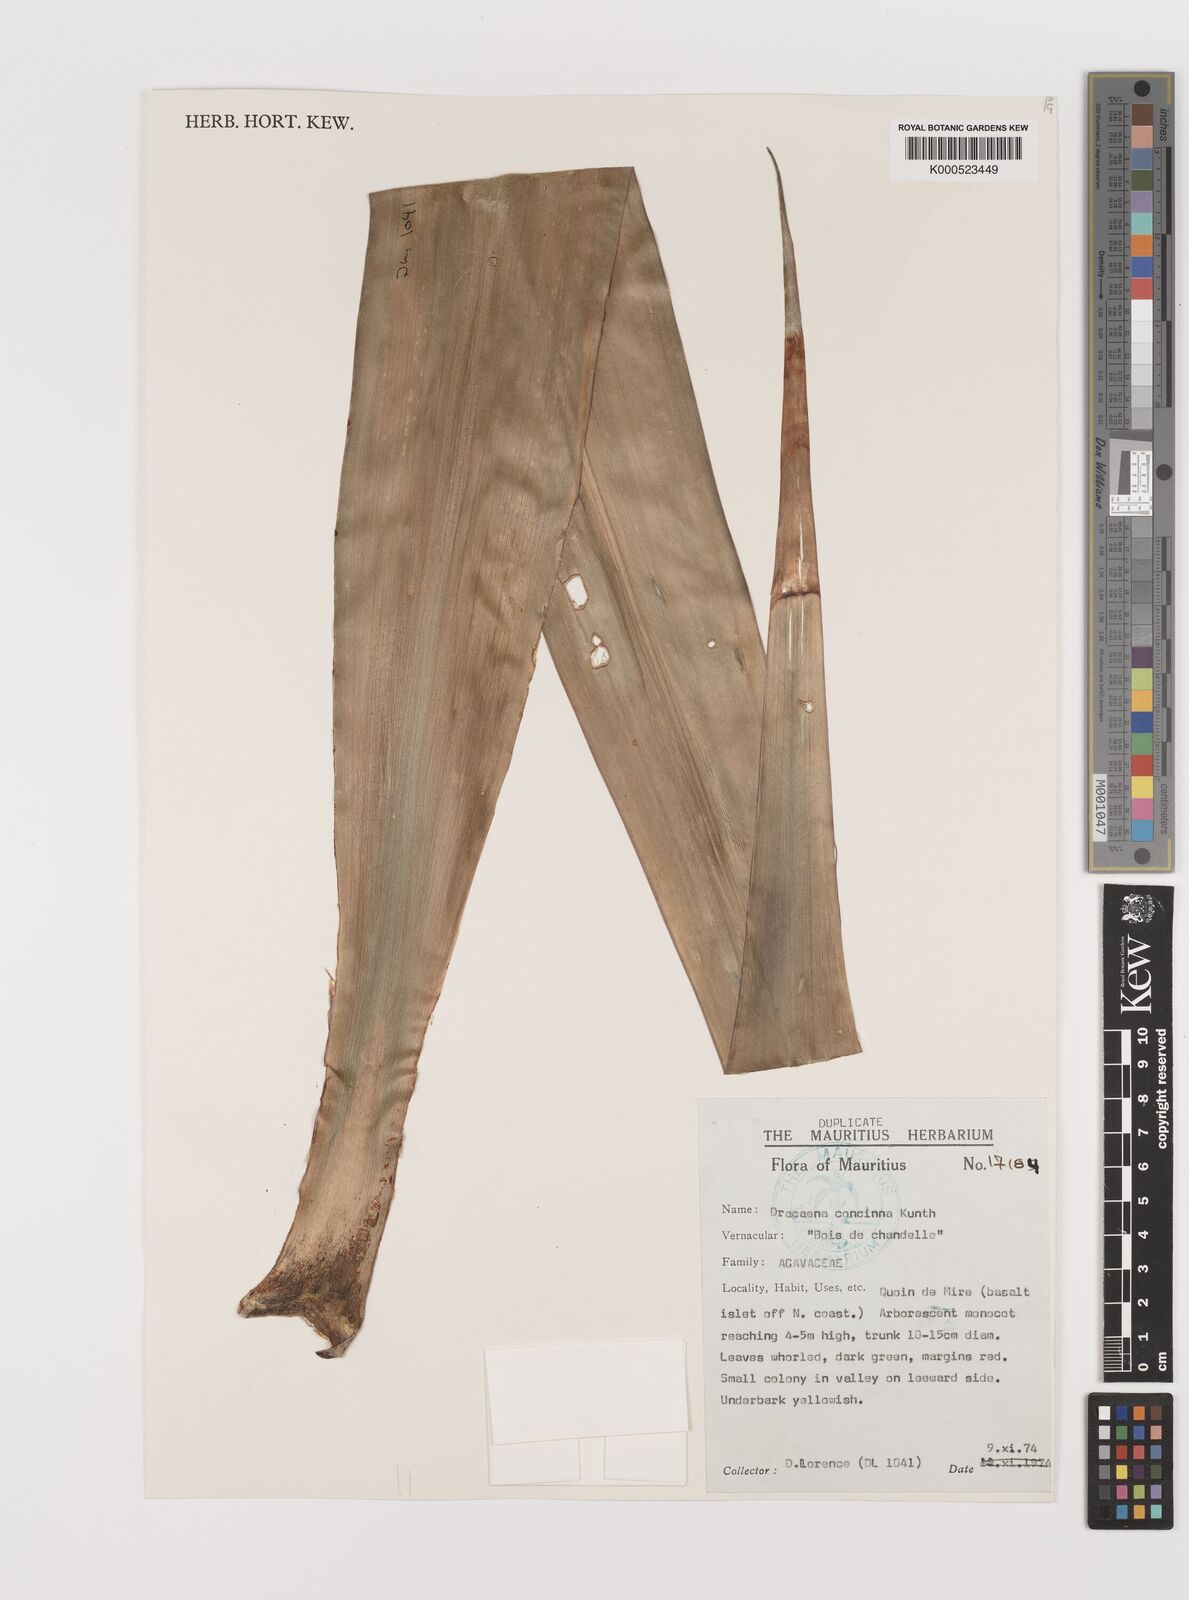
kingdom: Plantae
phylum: Tracheophyta
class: Liliopsida
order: Asparagales
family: Asparagaceae
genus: Dracaena
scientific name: Dracaena concinna
